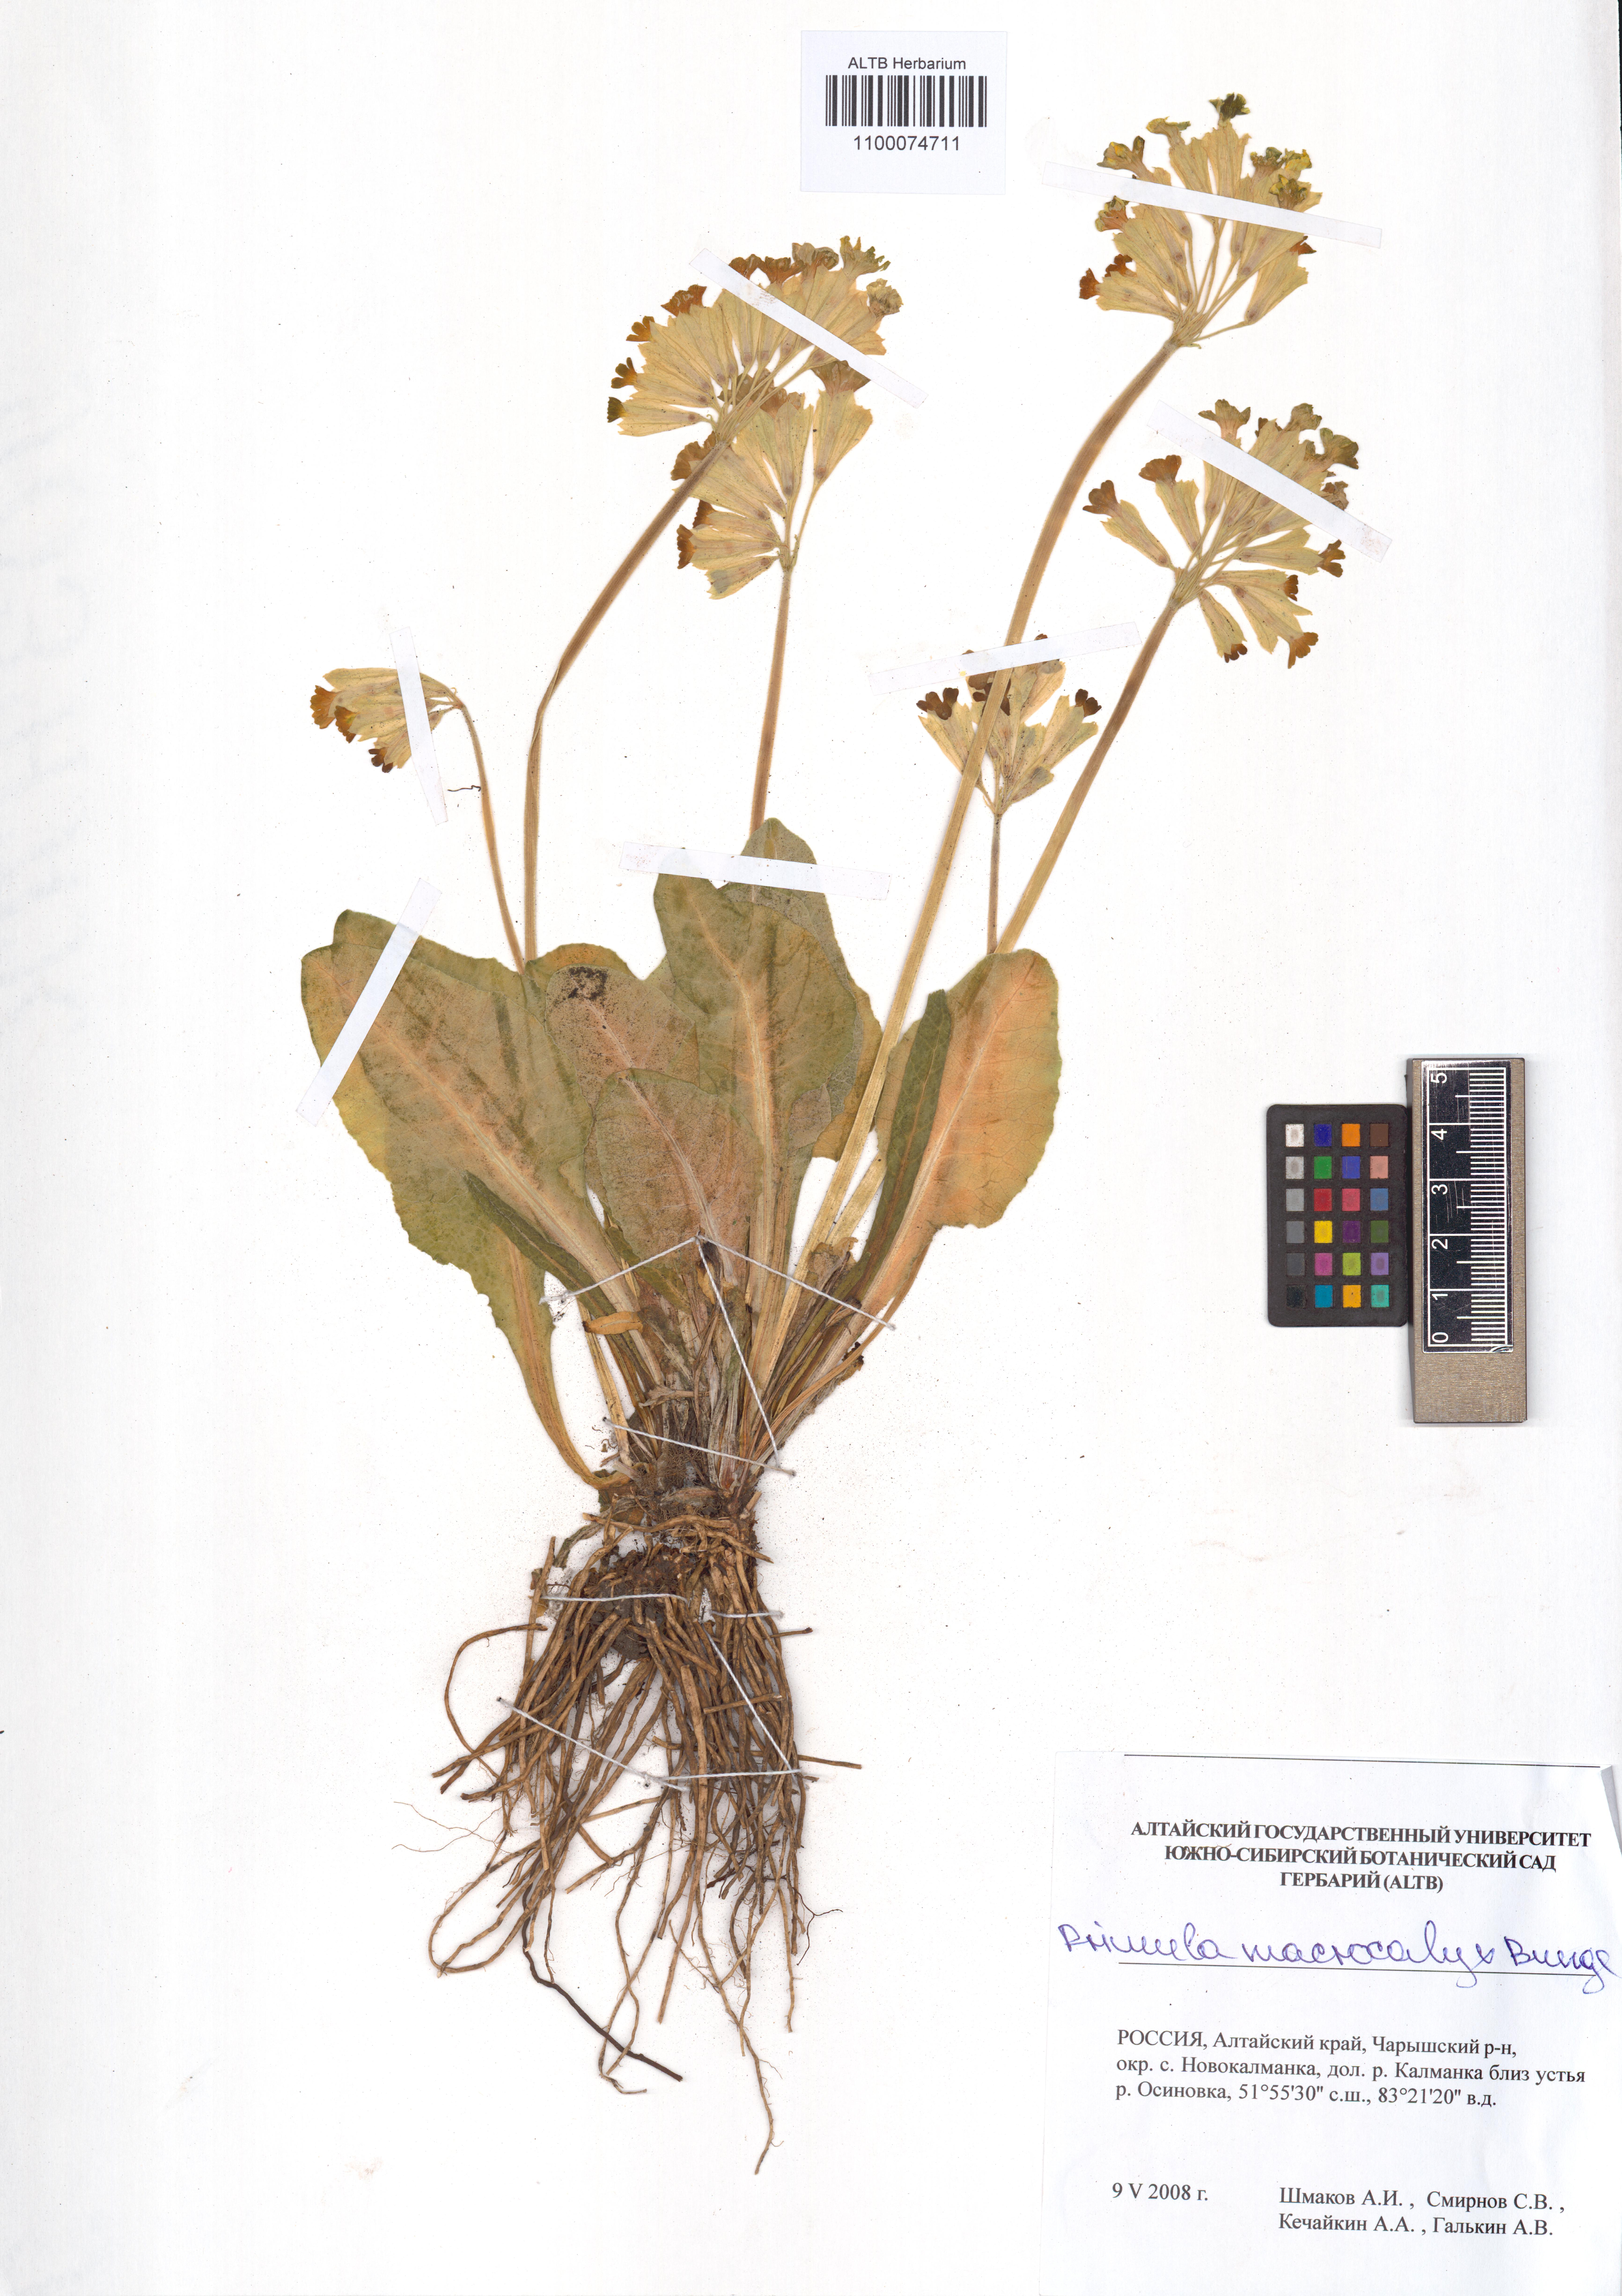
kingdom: Plantae
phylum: Tracheophyta
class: Magnoliopsida
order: Ericales
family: Primulaceae
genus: Primula
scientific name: Primula veris
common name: Cowslip
